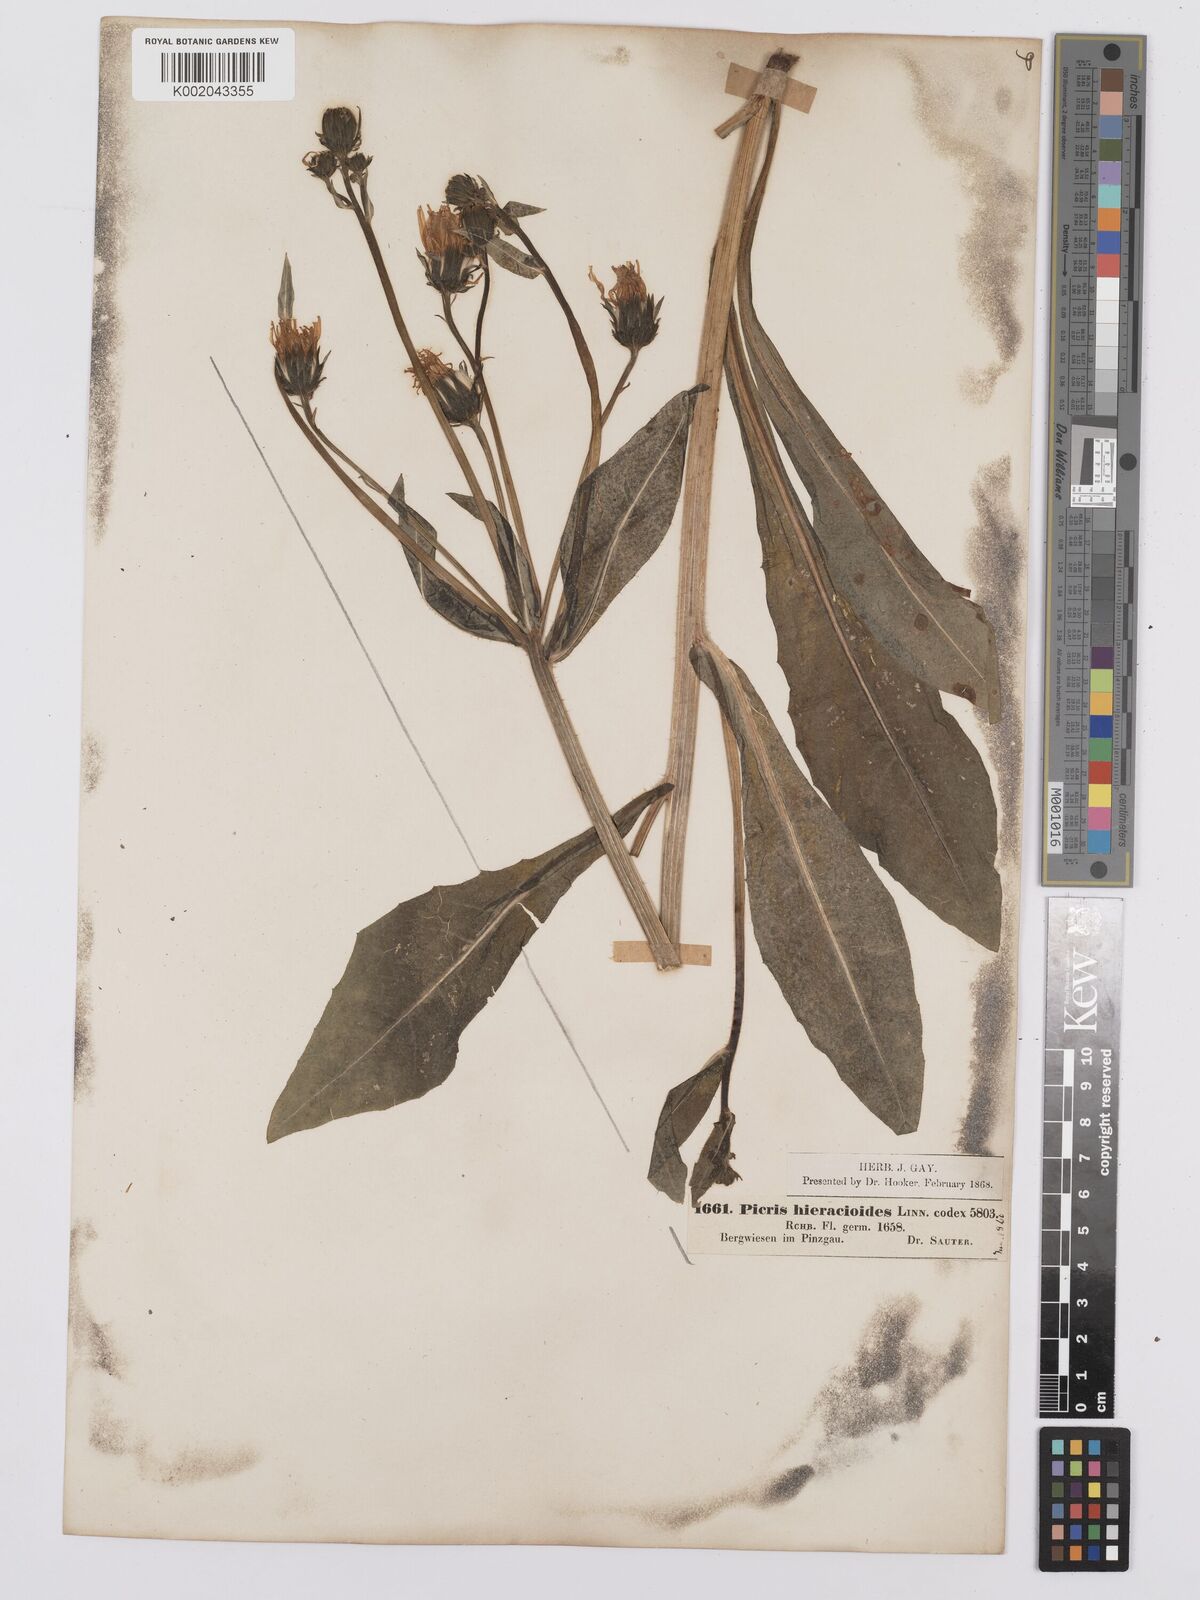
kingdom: Plantae
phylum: Tracheophyta
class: Magnoliopsida
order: Asterales
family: Asteraceae
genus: Picris
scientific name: Picris hieracioides
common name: Hawkweed oxtongue
